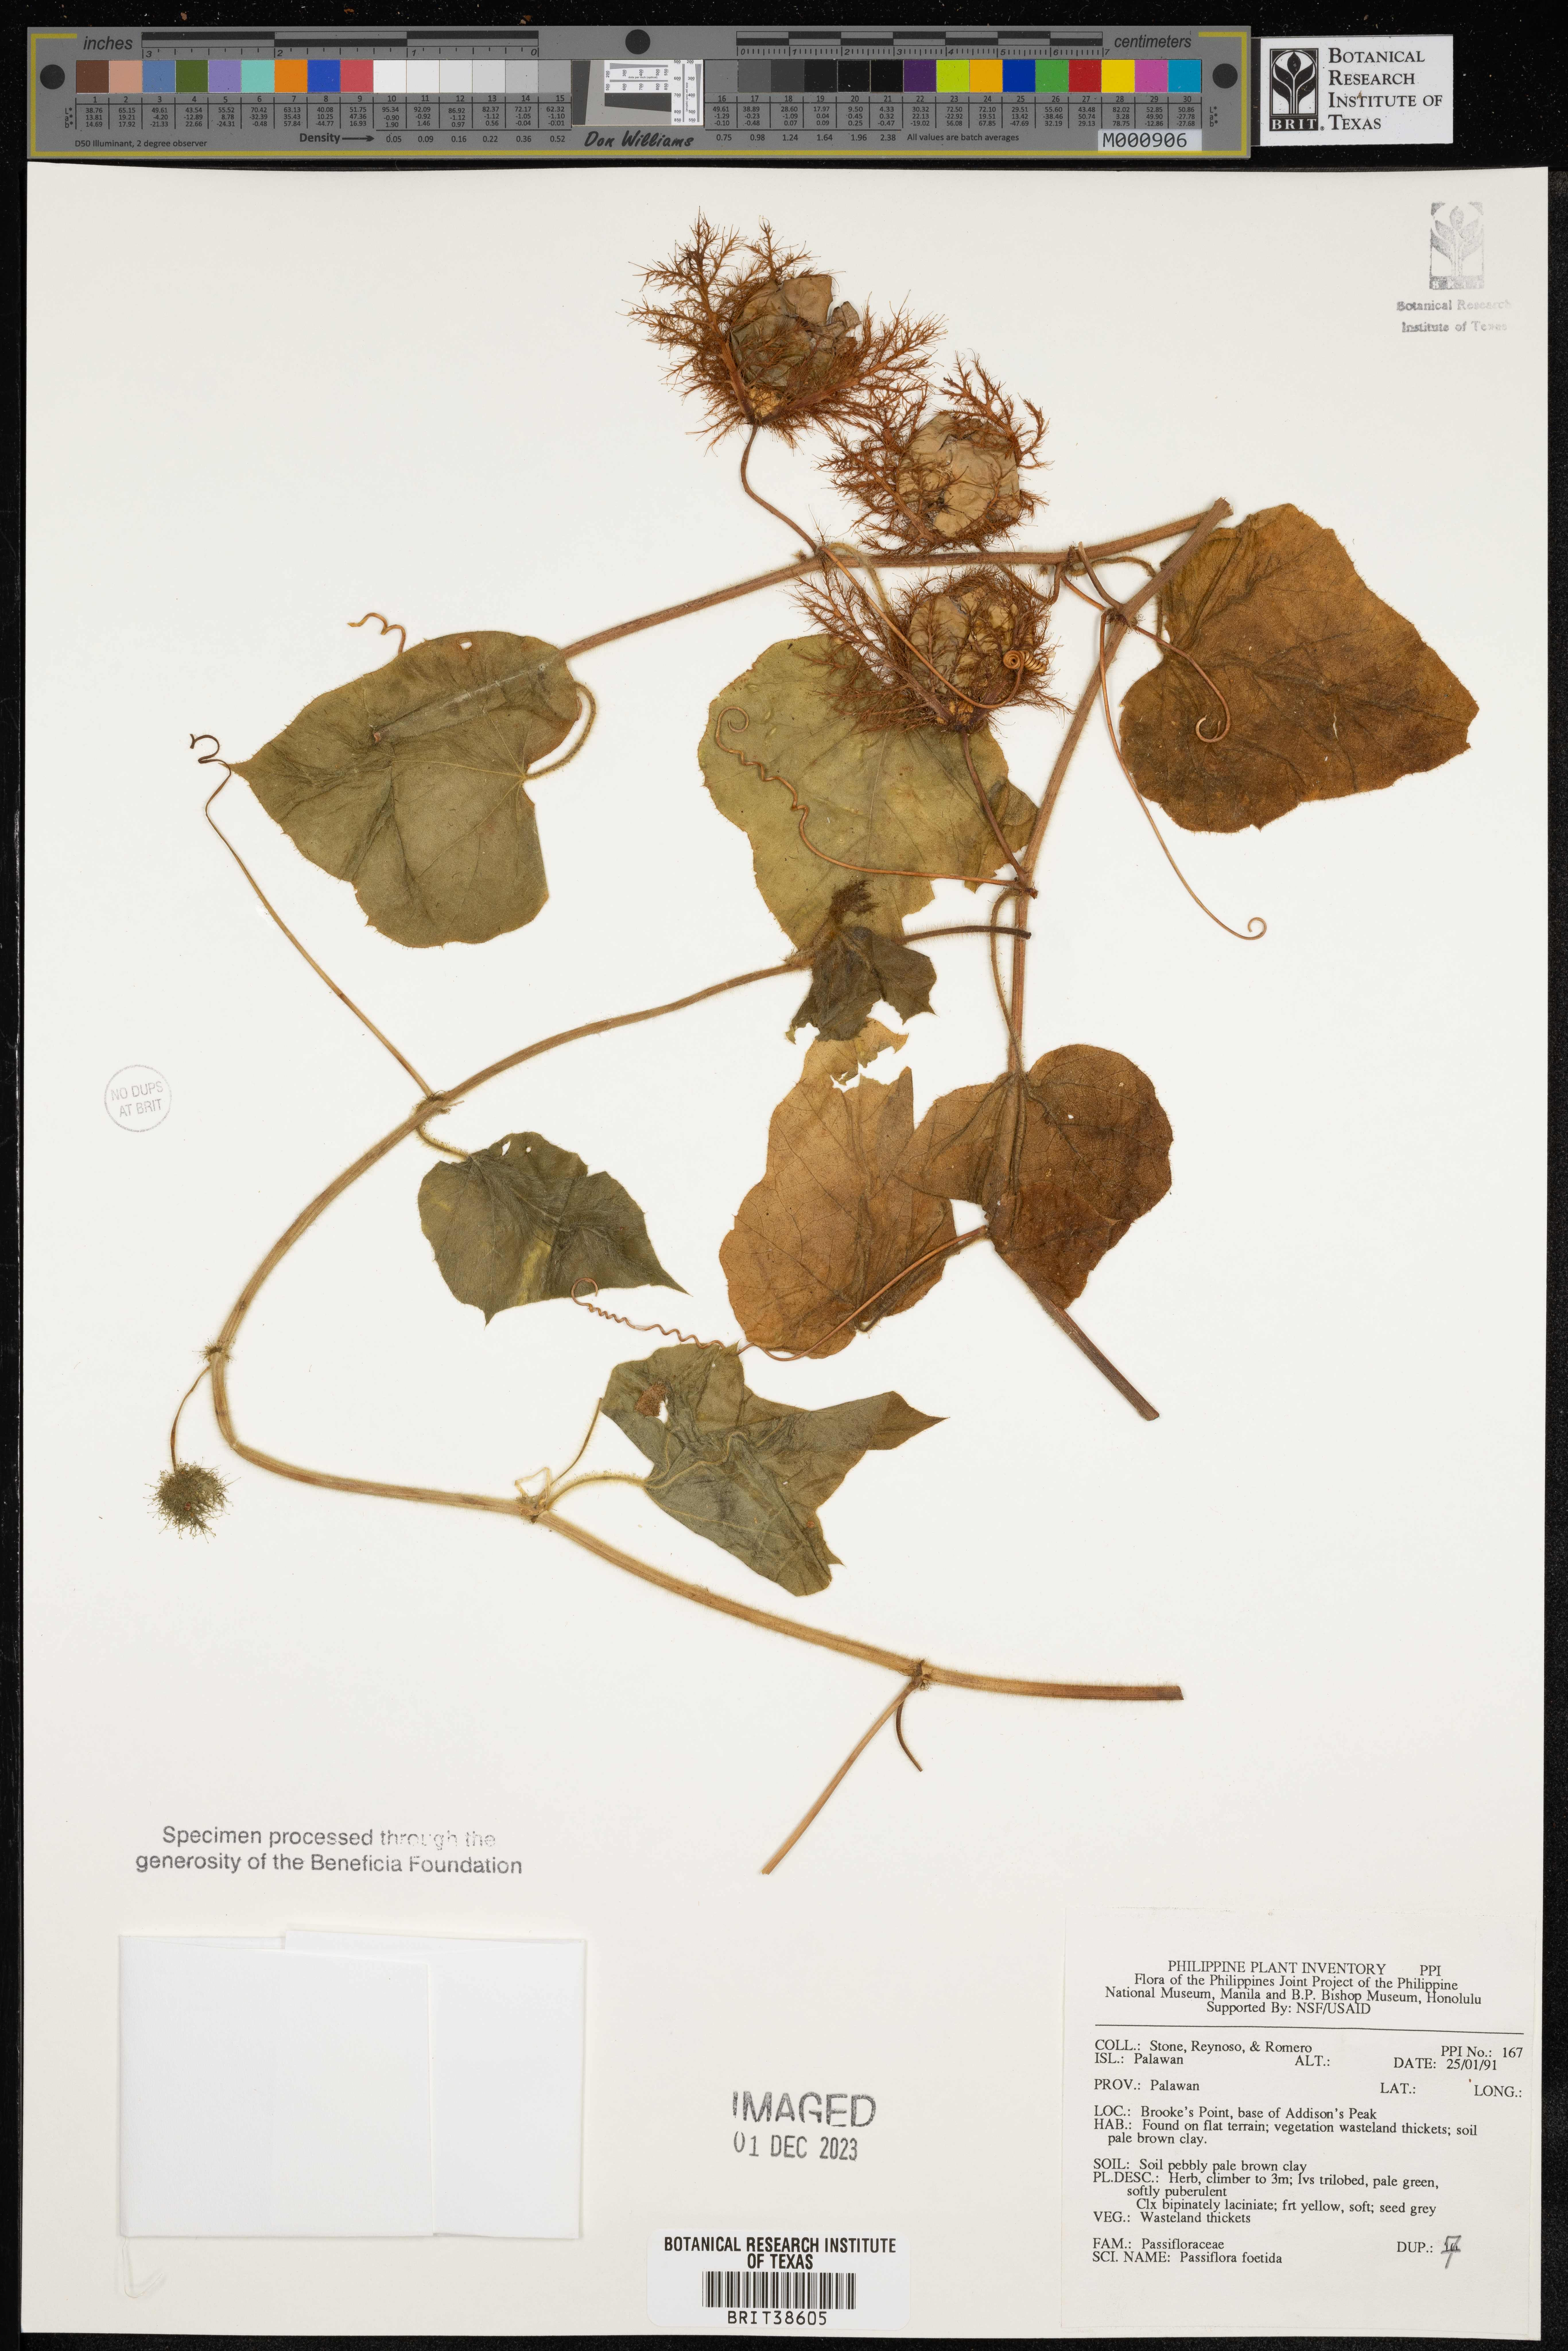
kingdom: Plantae
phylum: Tracheophyta
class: Magnoliopsida
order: Malpighiales
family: Passifloraceae
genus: Passiflora
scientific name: Passiflora foetida
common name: Fetid passionflower
